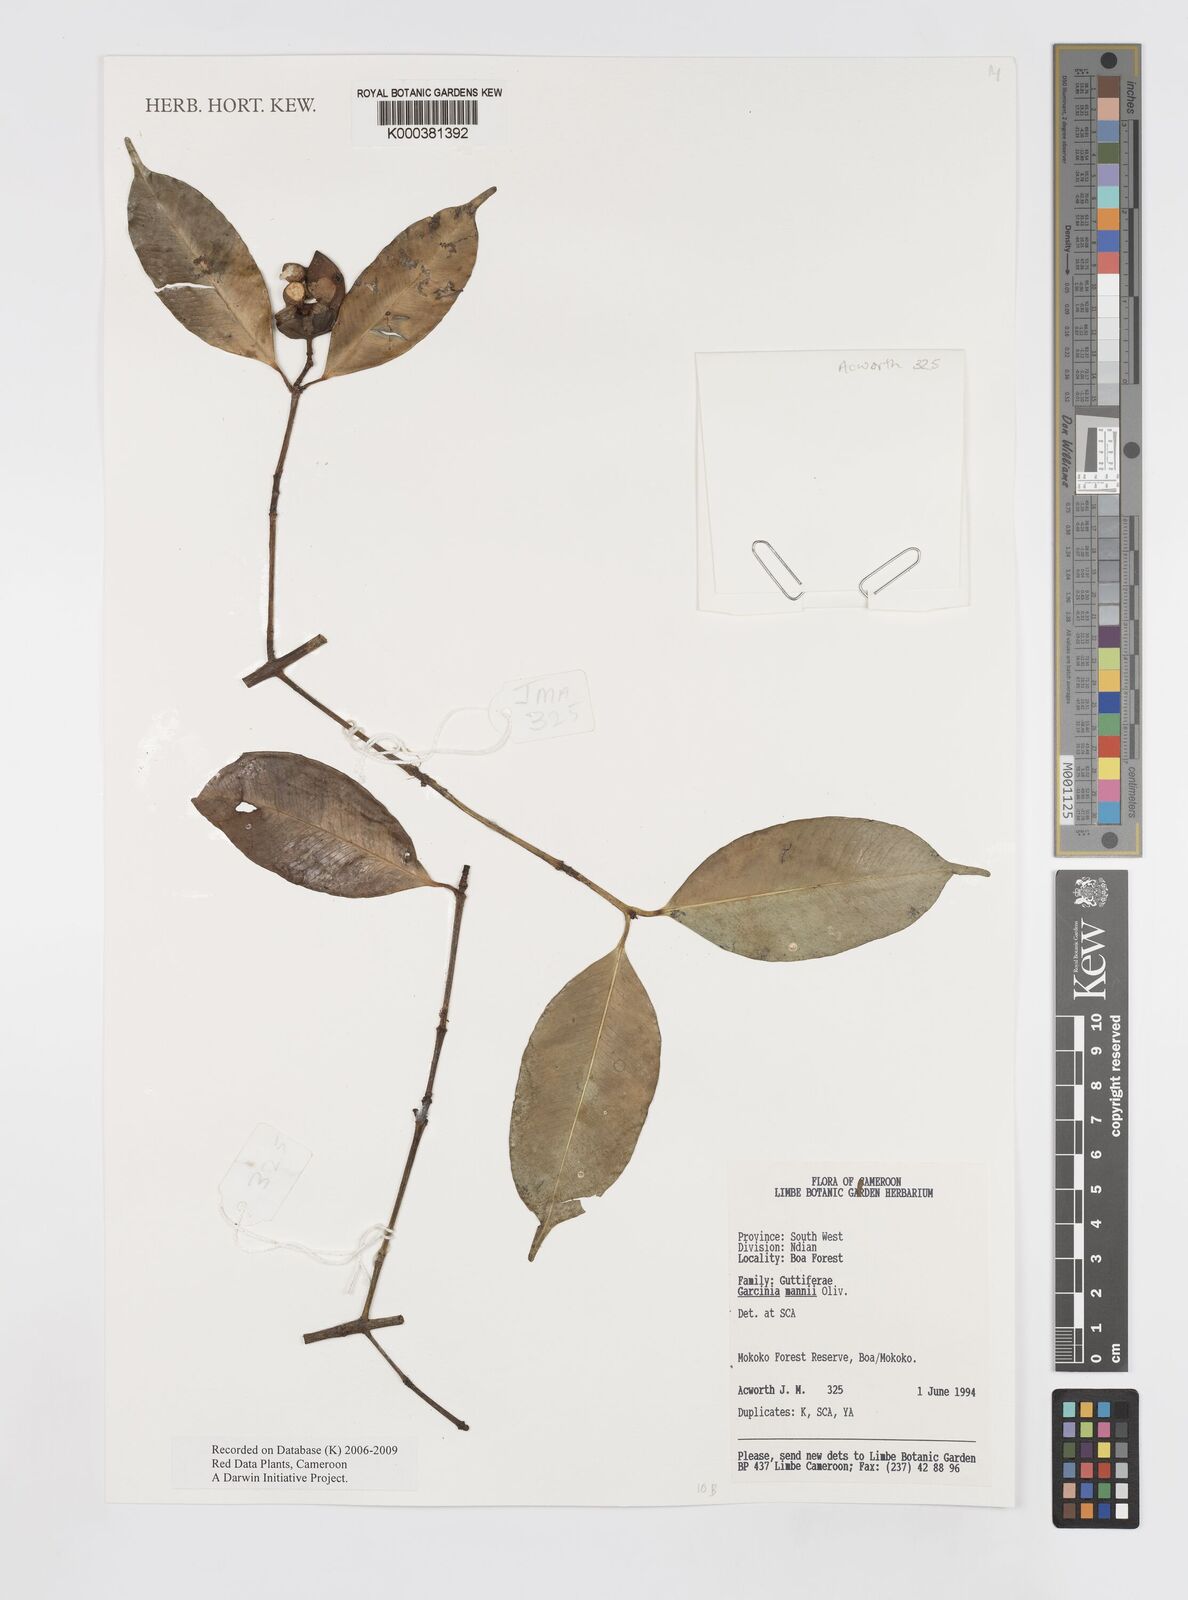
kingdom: Plantae
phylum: Tracheophyta
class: Magnoliopsida
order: Malpighiales
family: Clusiaceae
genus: Garcinia
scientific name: Garcinia mannii
